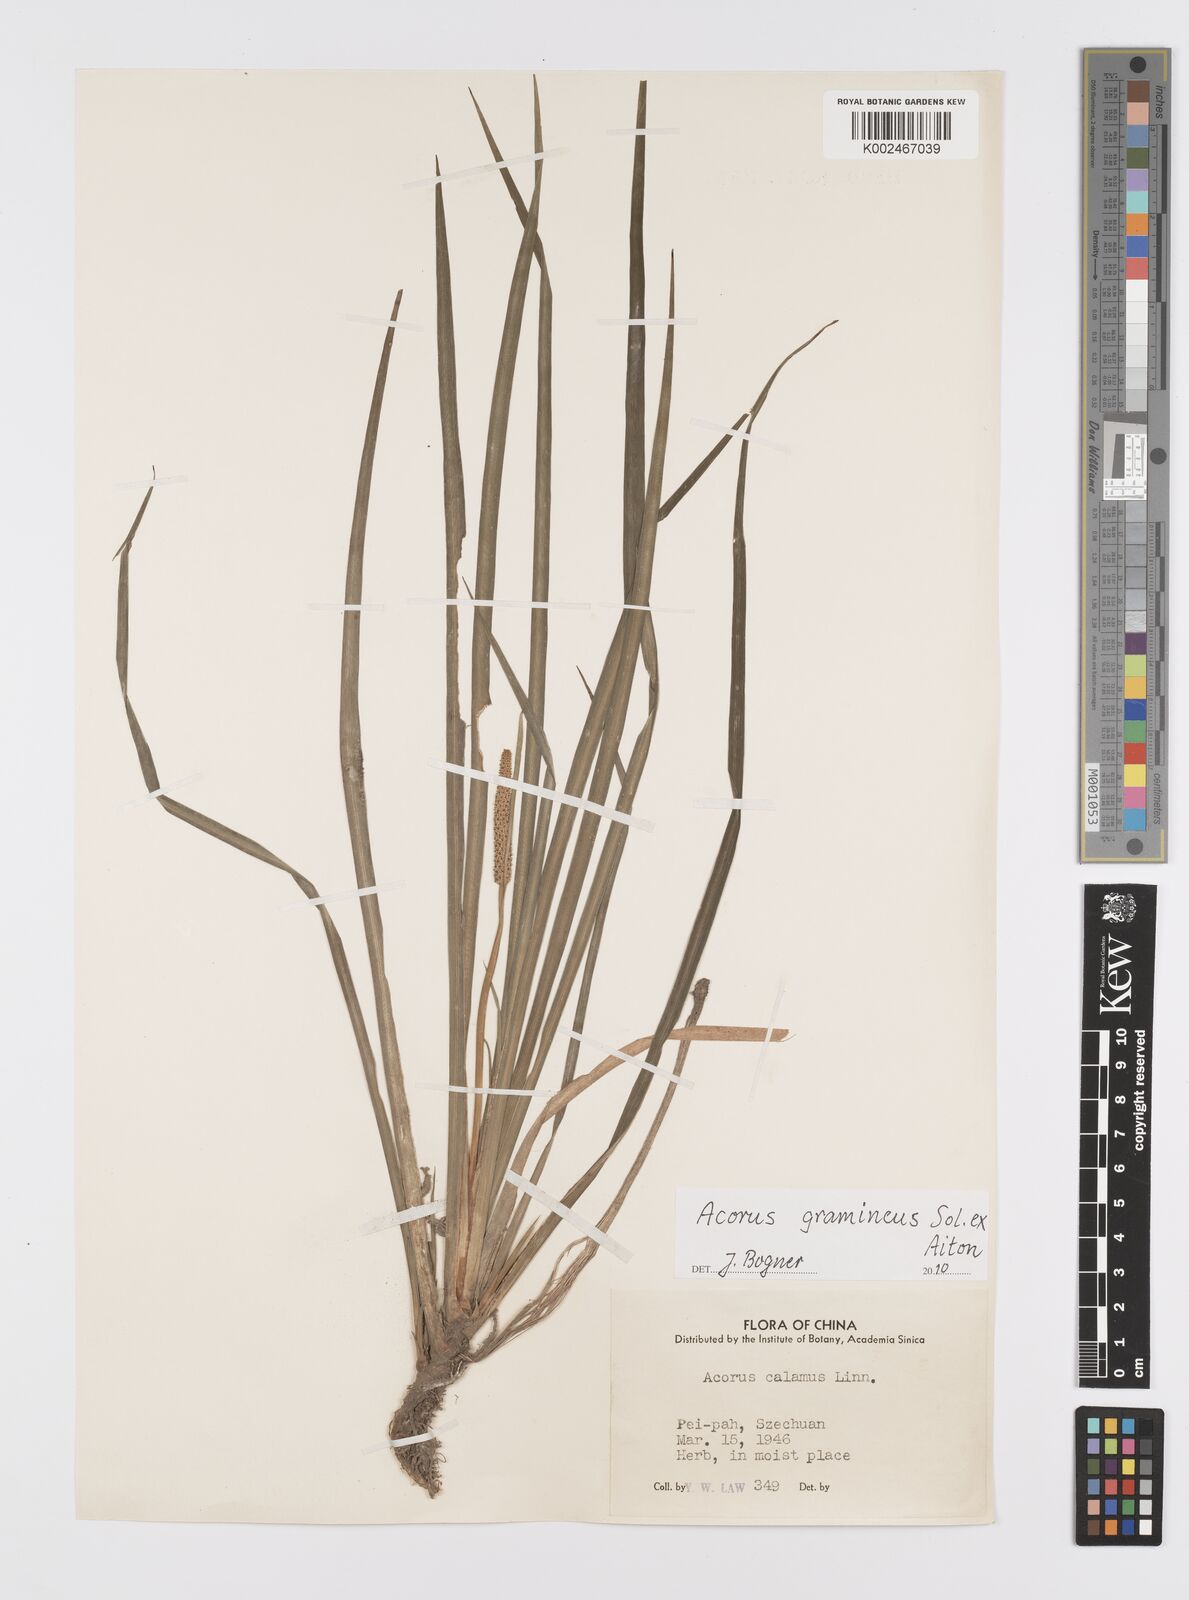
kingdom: Plantae
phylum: Tracheophyta
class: Liliopsida
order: Acorales
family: Acoraceae
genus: Acorus
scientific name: Acorus gramineus
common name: Slender sweet-flag
